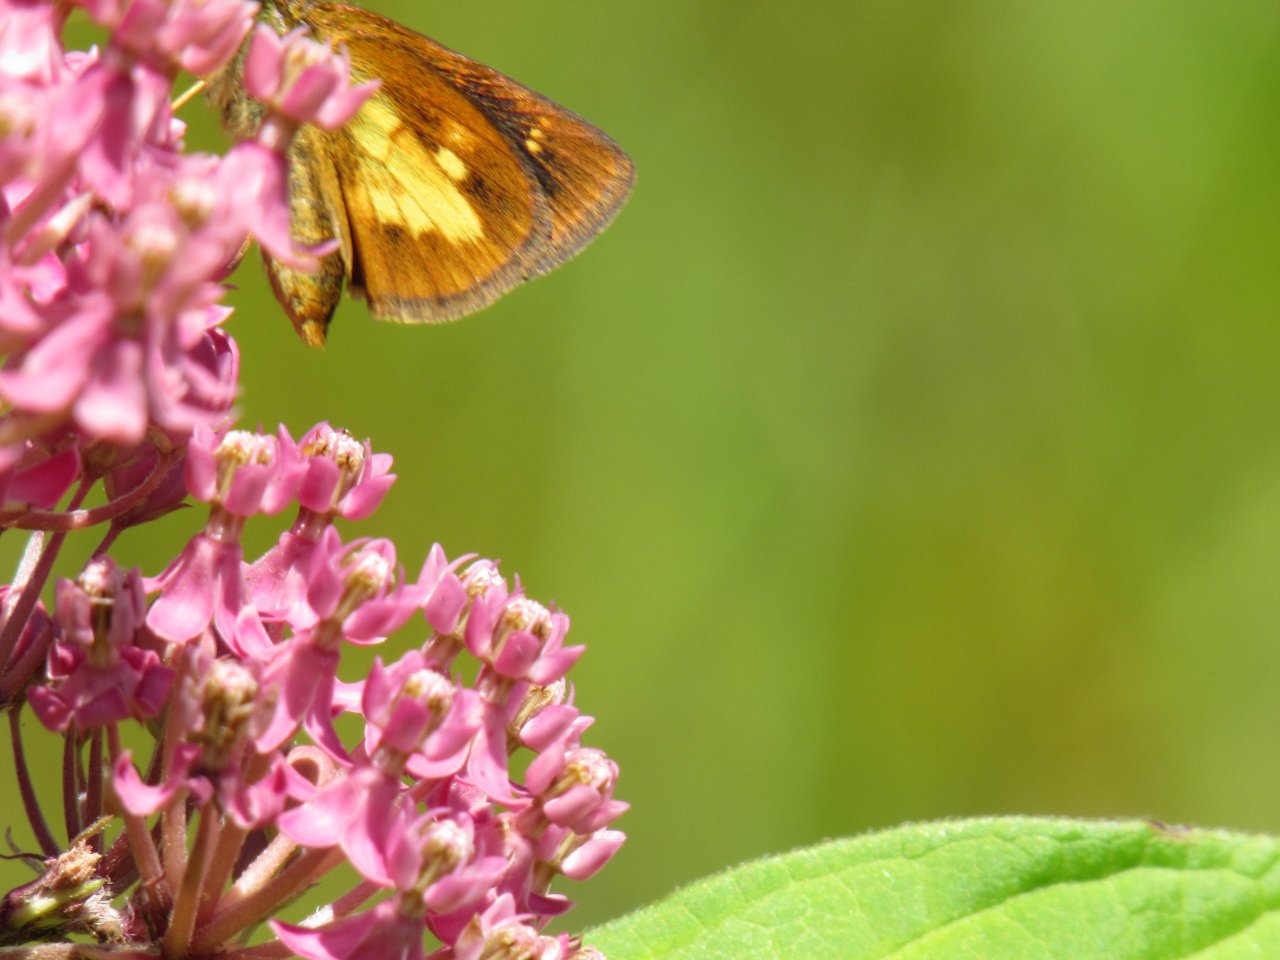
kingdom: Animalia
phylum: Arthropoda
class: Insecta
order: Lepidoptera
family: Hesperiidae
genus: Poanes
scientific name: Poanes massasoit
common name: Mulberry Wing
